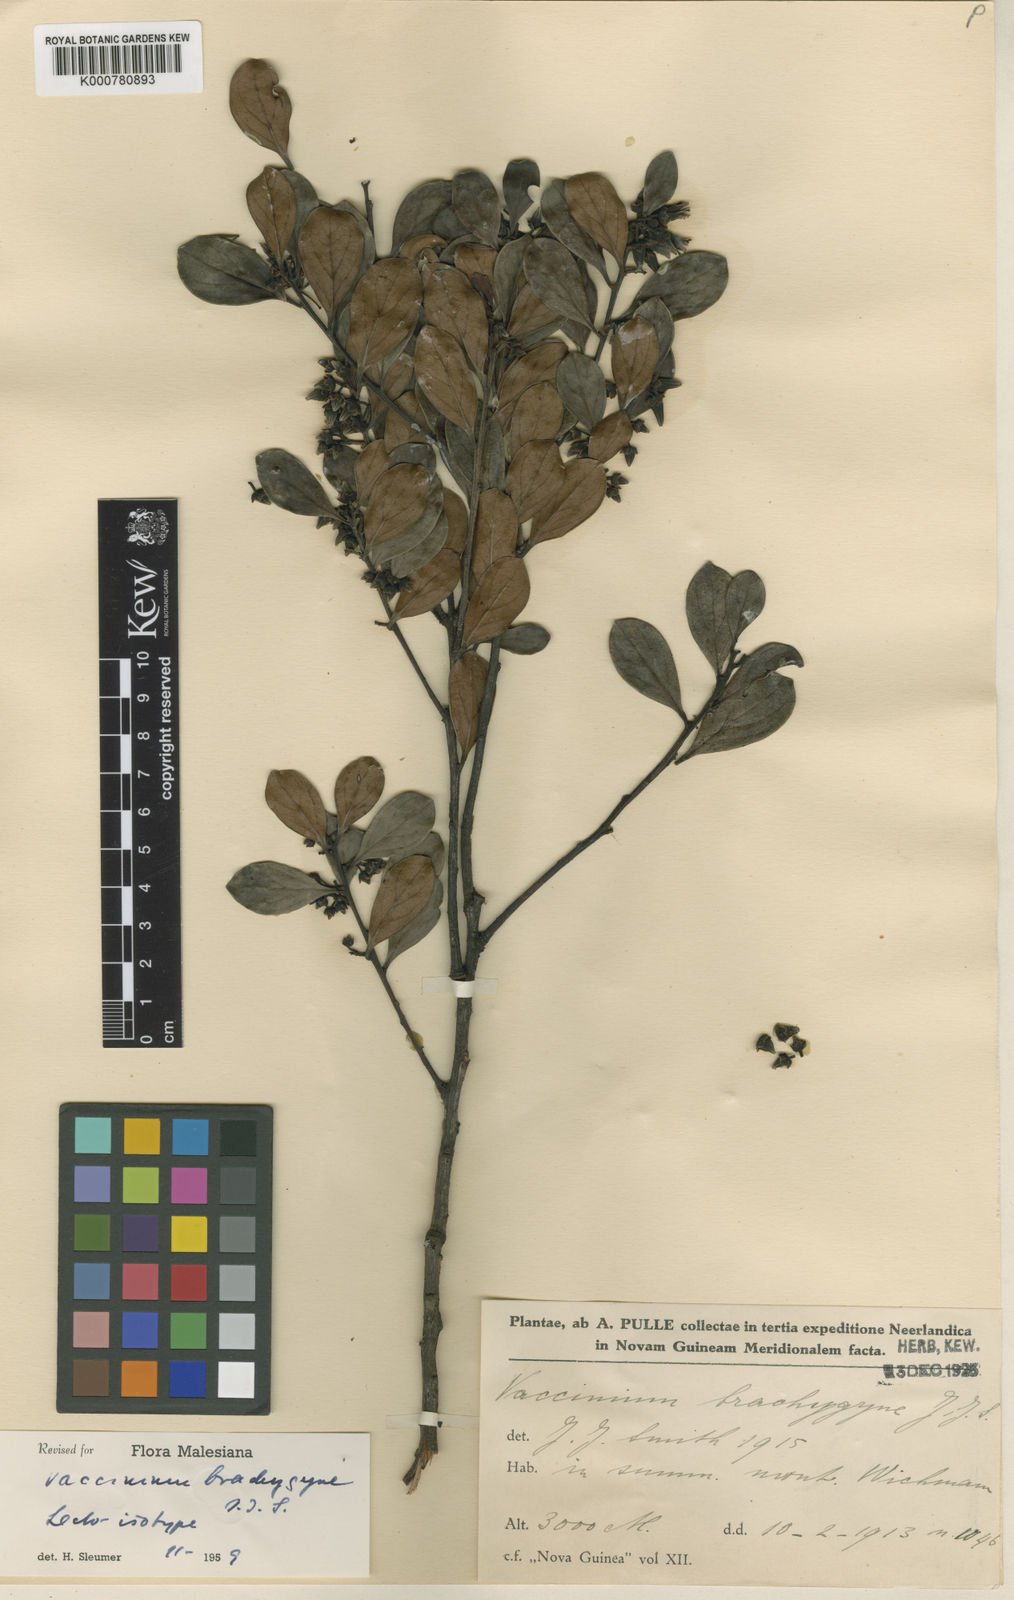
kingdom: Plantae
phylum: Tracheophyta
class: Magnoliopsida
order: Ericales
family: Ericaceae
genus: Vaccinium
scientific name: Vaccinium brachygyne
